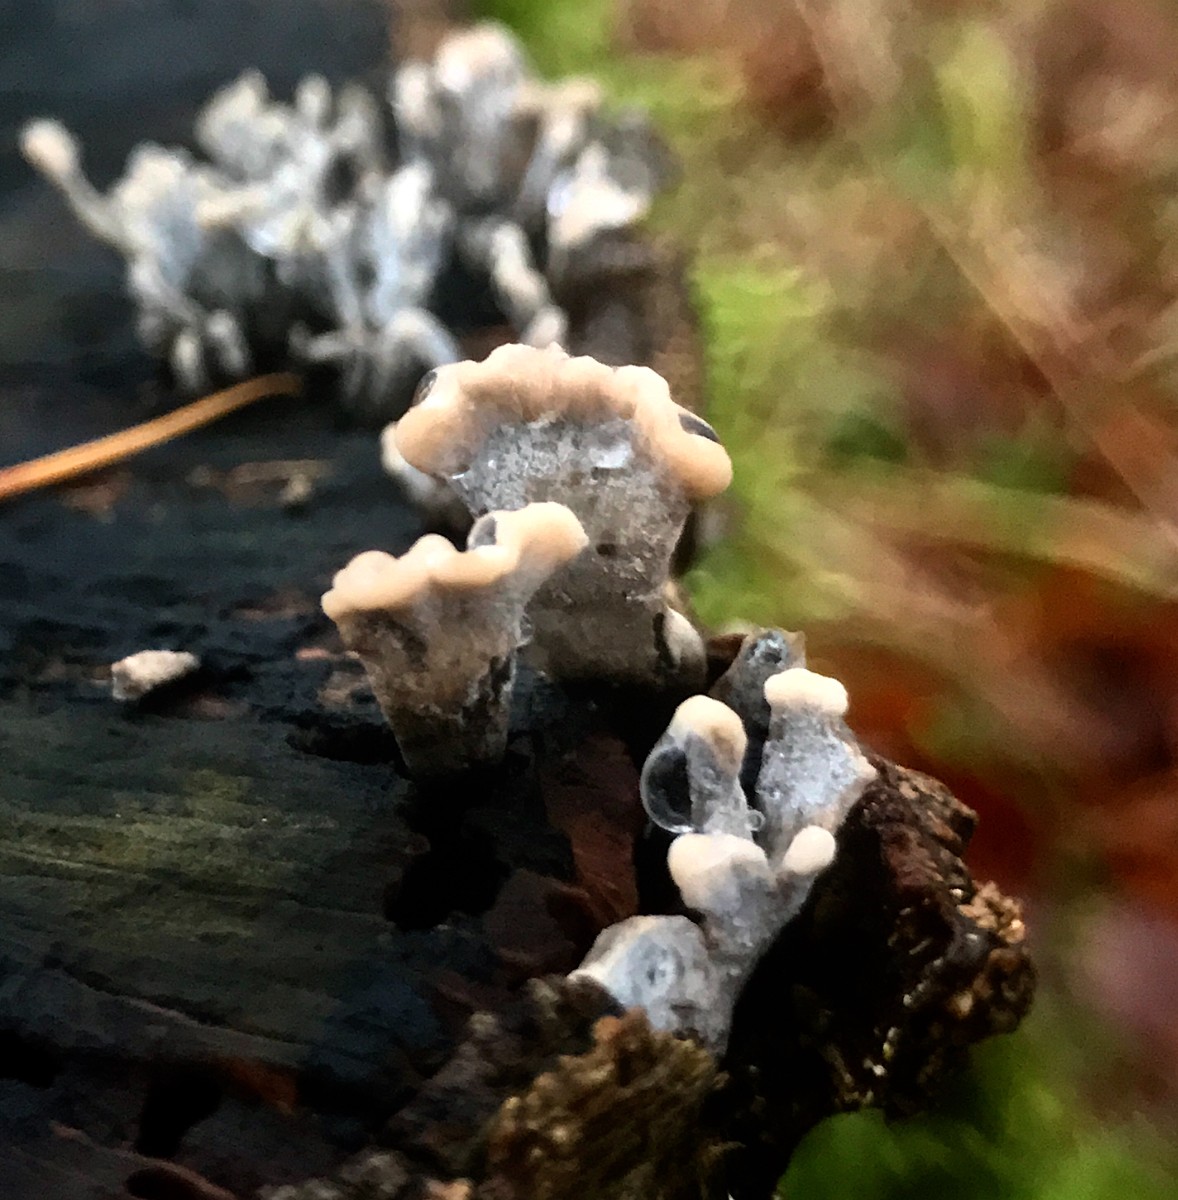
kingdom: Fungi
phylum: Ascomycota
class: Sordariomycetes
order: Xylariales
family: Xylariaceae
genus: Xylaria
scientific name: Xylaria hypoxylon
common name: grenet stødsvamp
